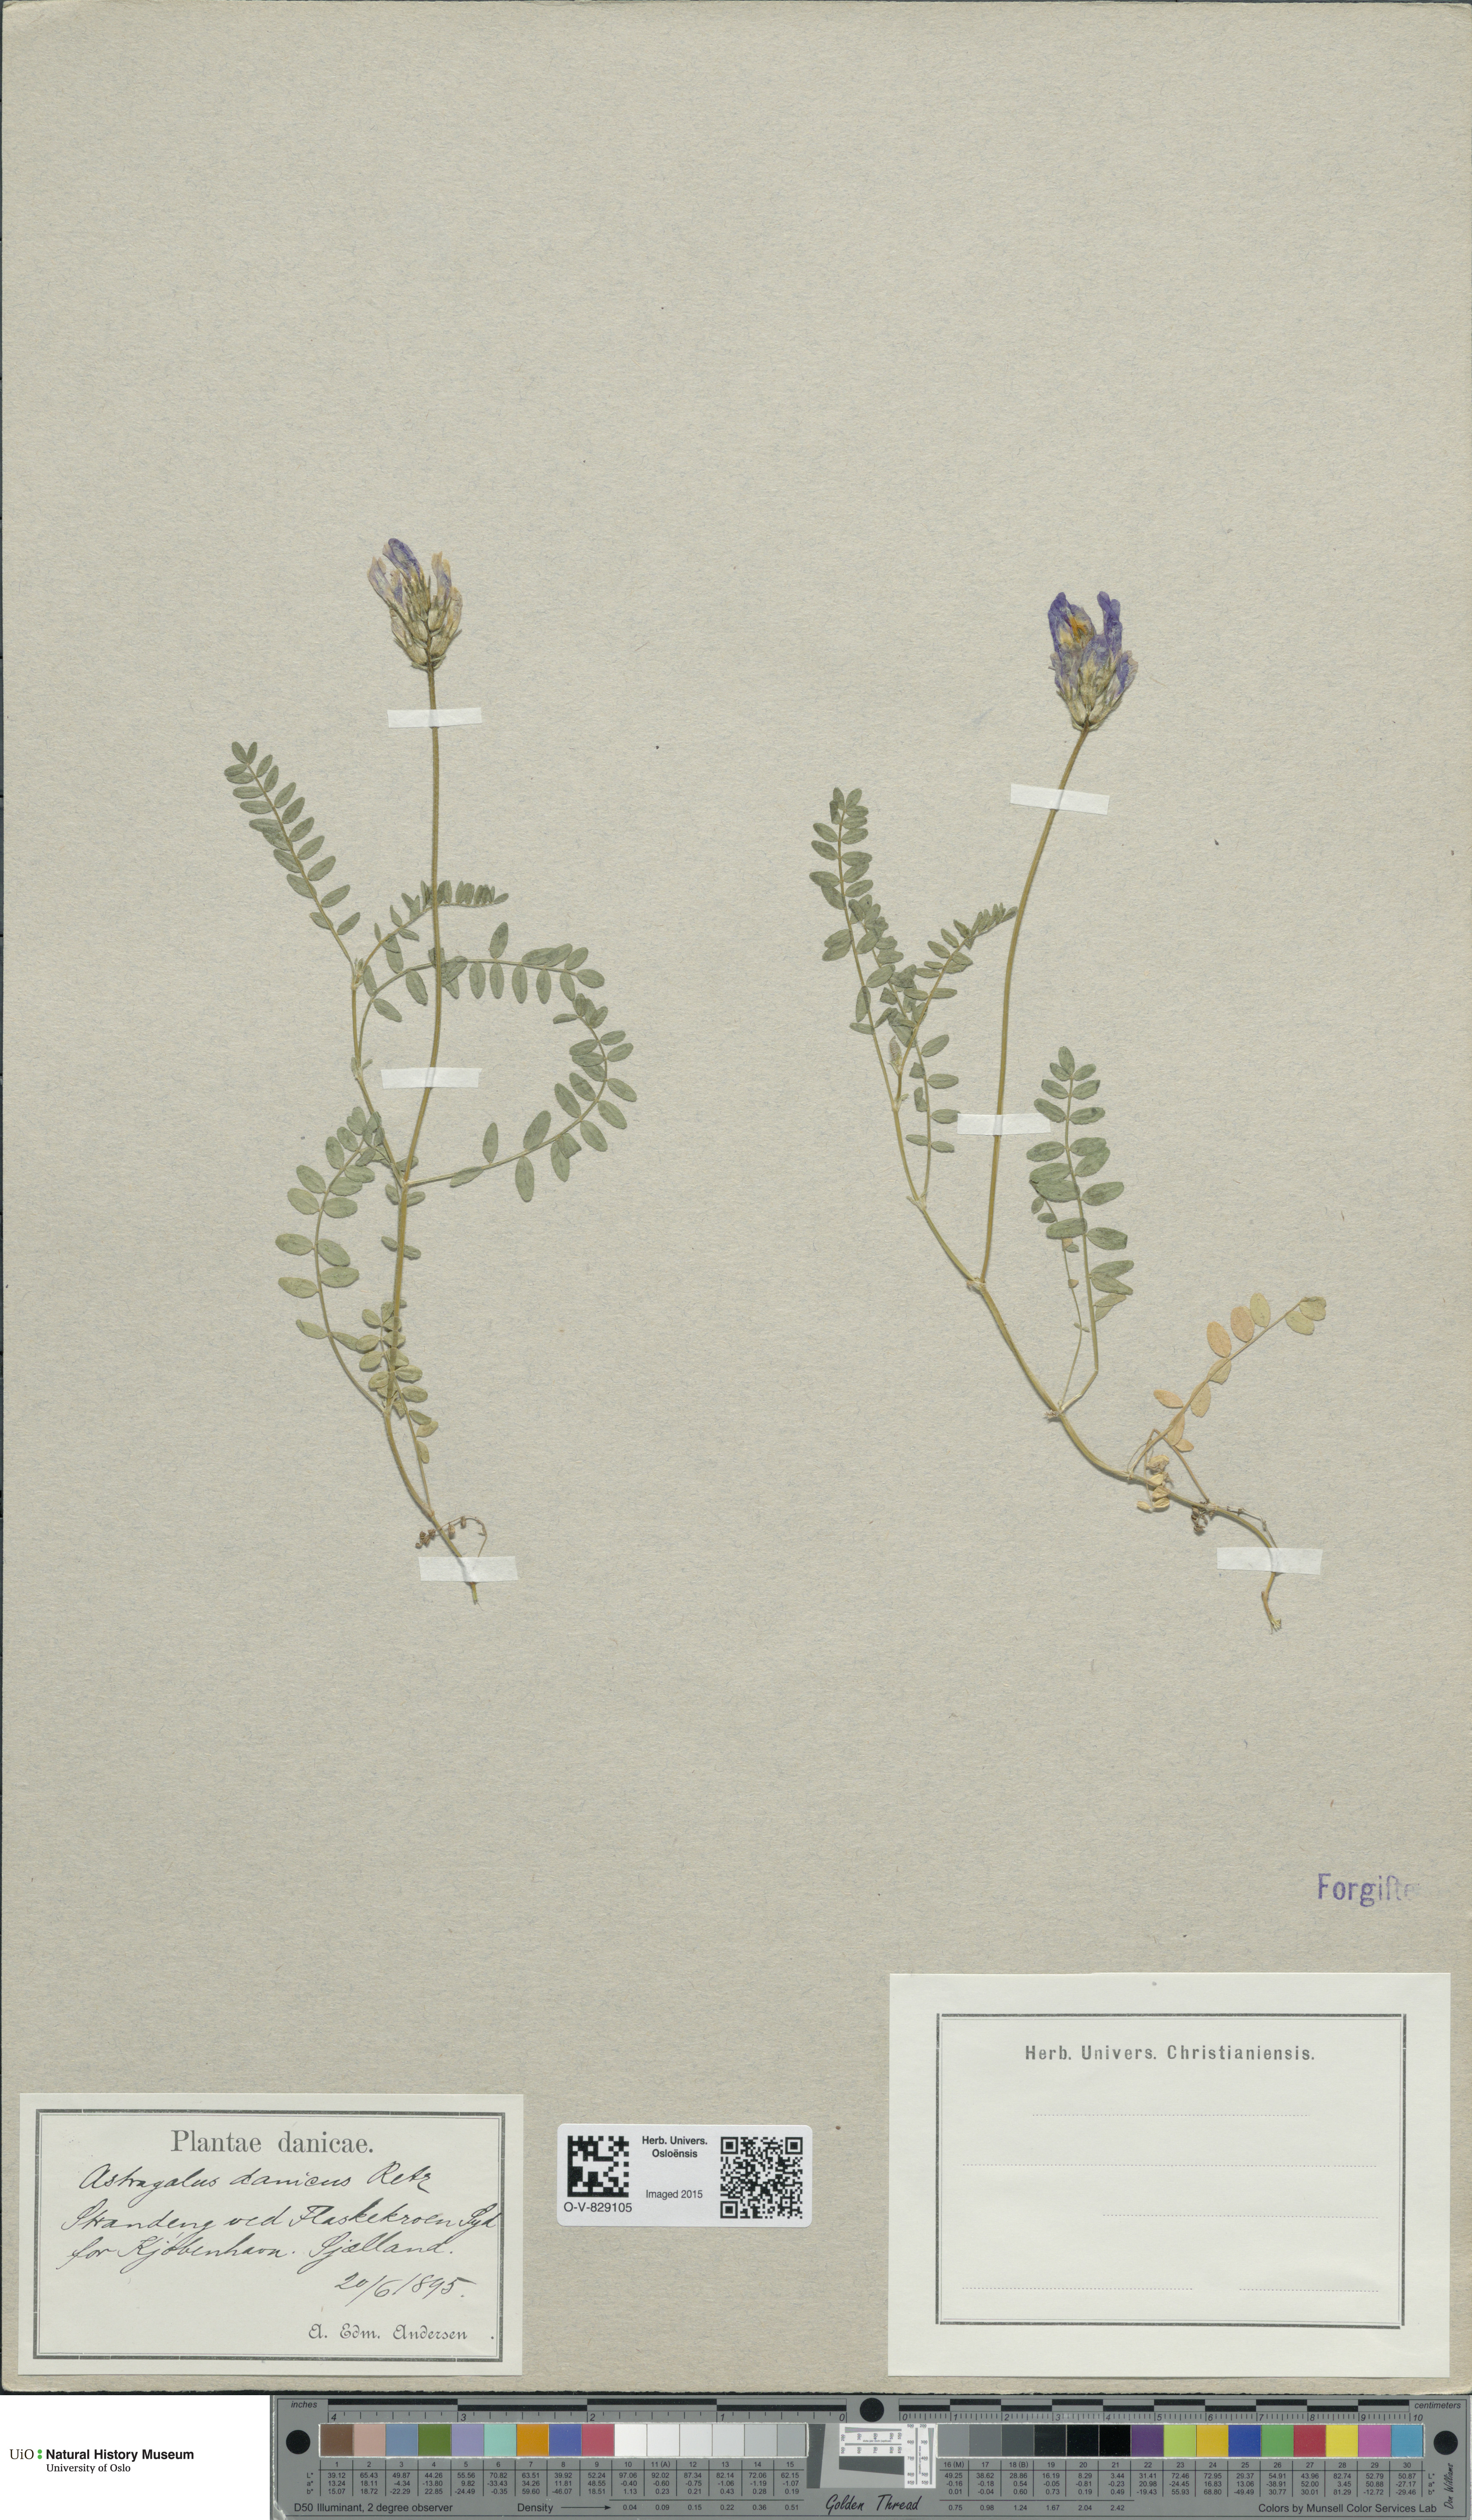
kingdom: Plantae
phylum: Tracheophyta
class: Magnoliopsida
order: Fabales
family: Fabaceae
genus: Astragalus
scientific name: Astragalus danicus
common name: Purple milk-vetch
